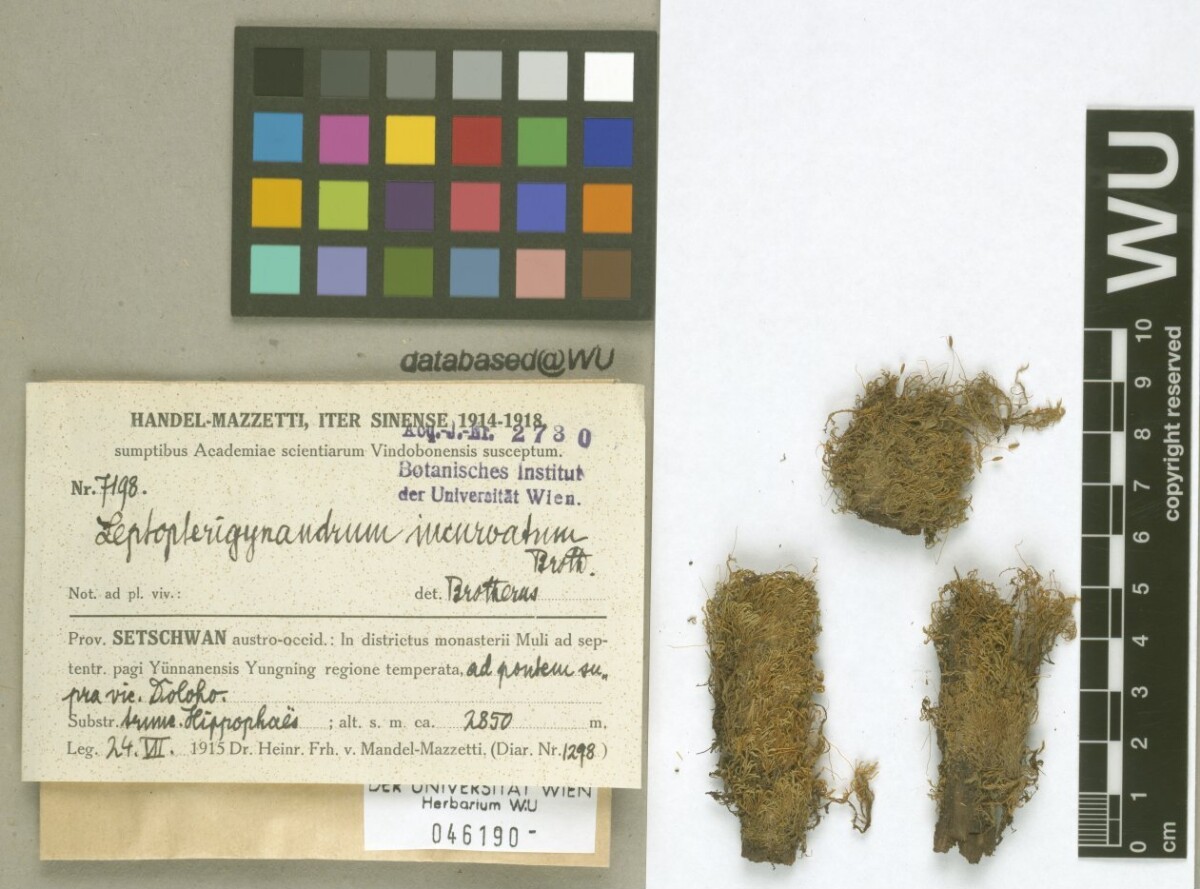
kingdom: Plantae
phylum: Bryophyta
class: Bryopsida
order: Hypnales
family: Taxiphyllaceae
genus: Leptopterigynandrum
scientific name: Leptopterigynandrum incurvatum
